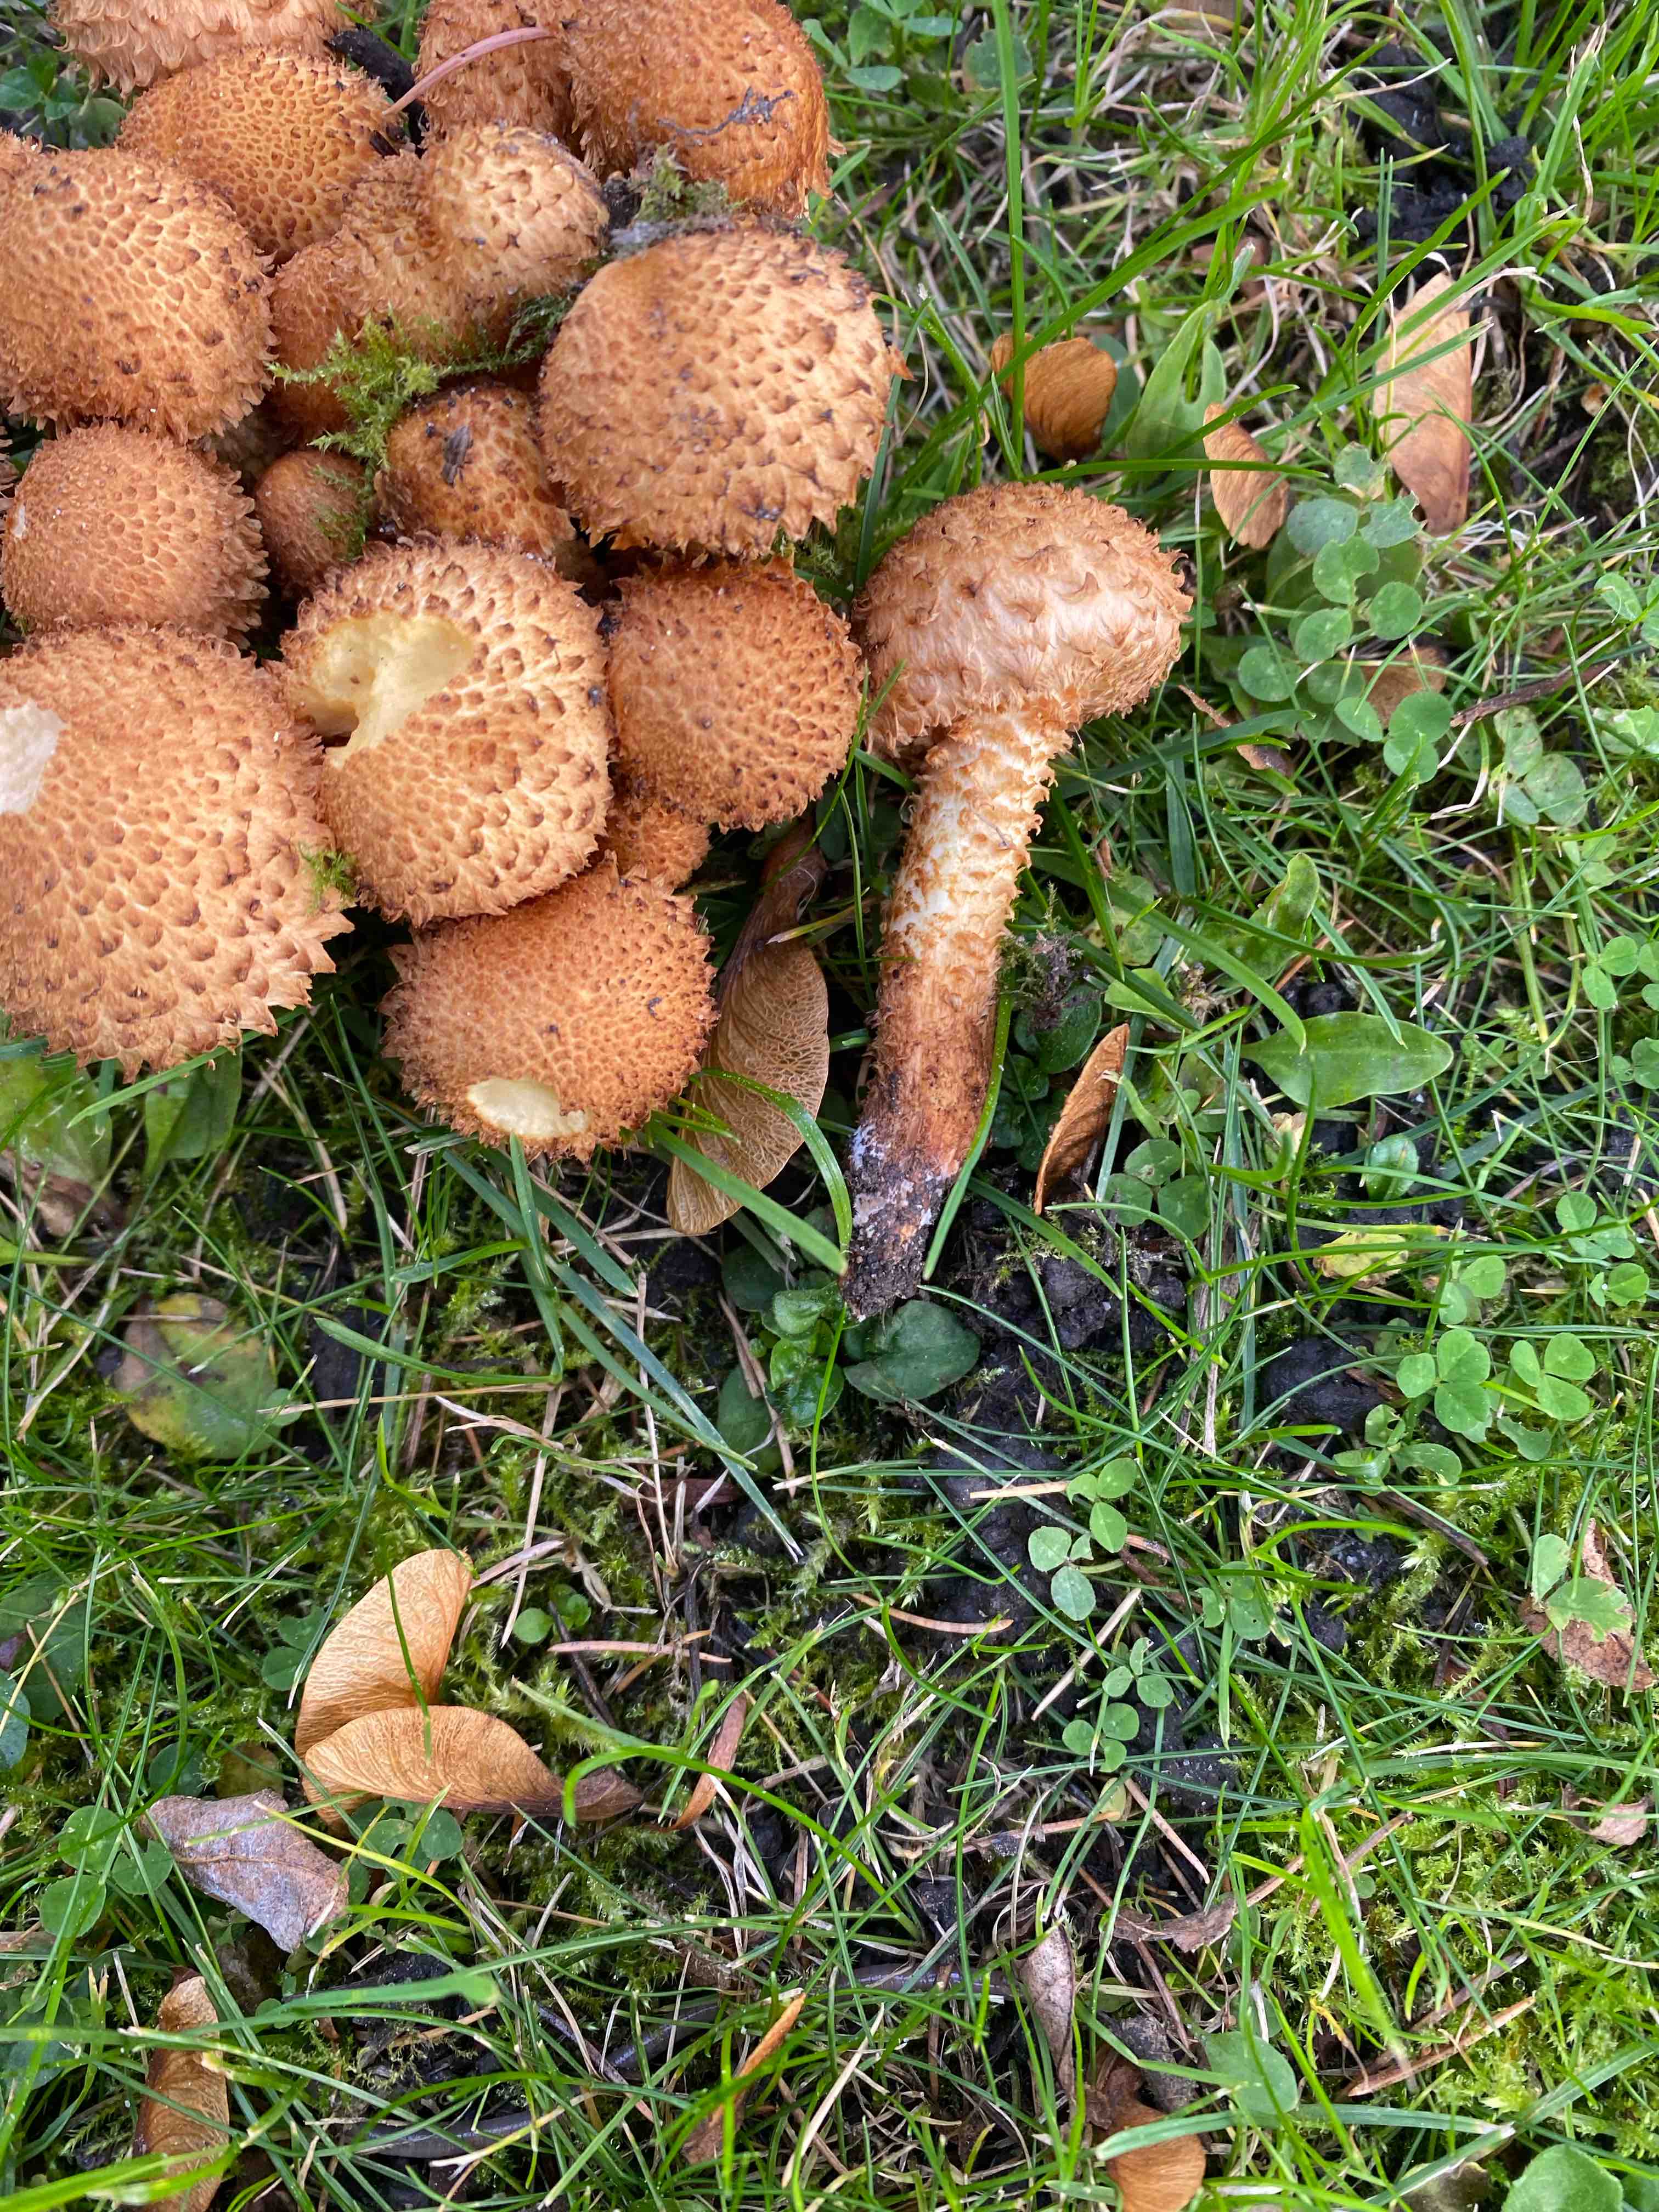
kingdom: Fungi
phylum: Basidiomycota
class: Agaricomycetes
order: Agaricales
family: Strophariaceae
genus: Pholiota
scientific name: Pholiota squarrosa
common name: krumskællet skælhat
